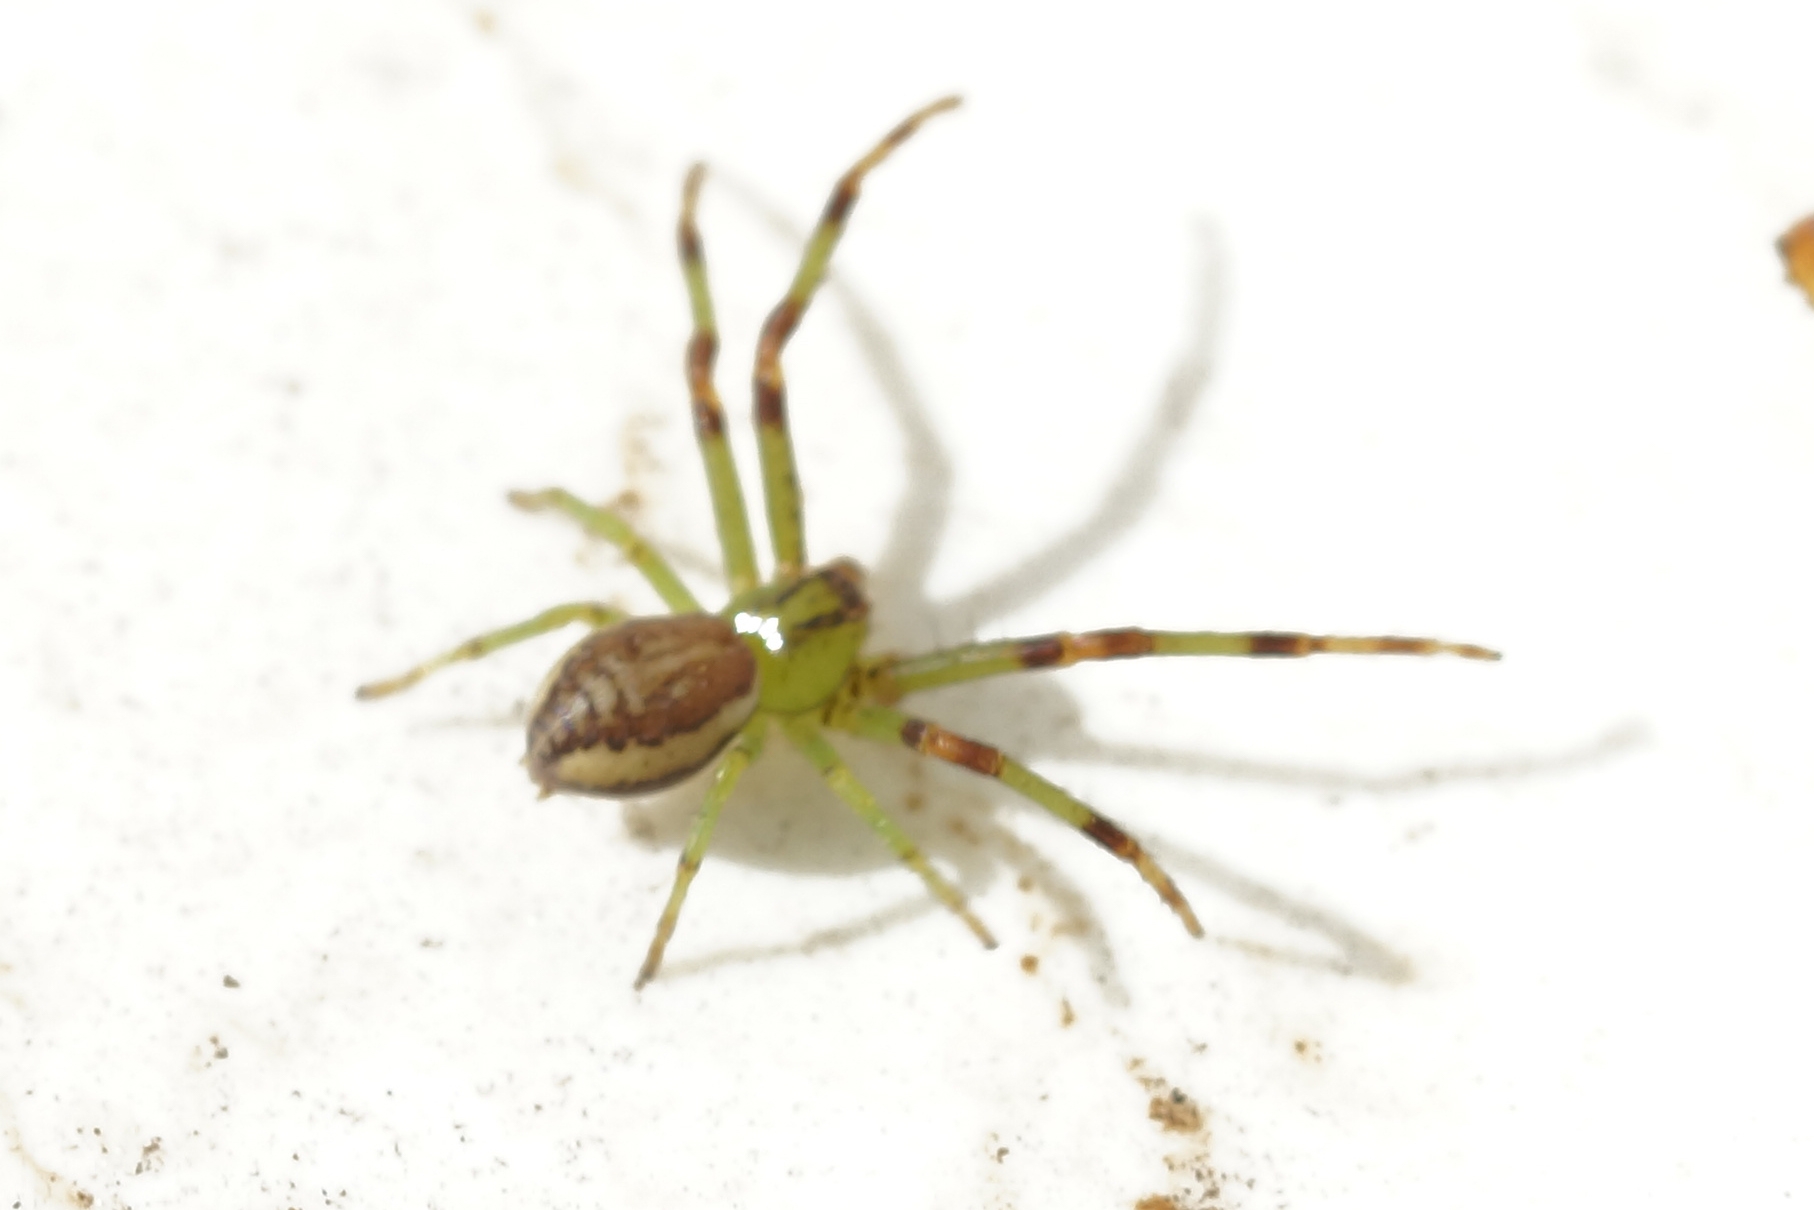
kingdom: Animalia
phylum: Arthropoda
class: Arachnida
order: Araneae
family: Thomisidae
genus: Diaea
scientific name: Diaea dorsata
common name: Grøn krabbeedderkop
